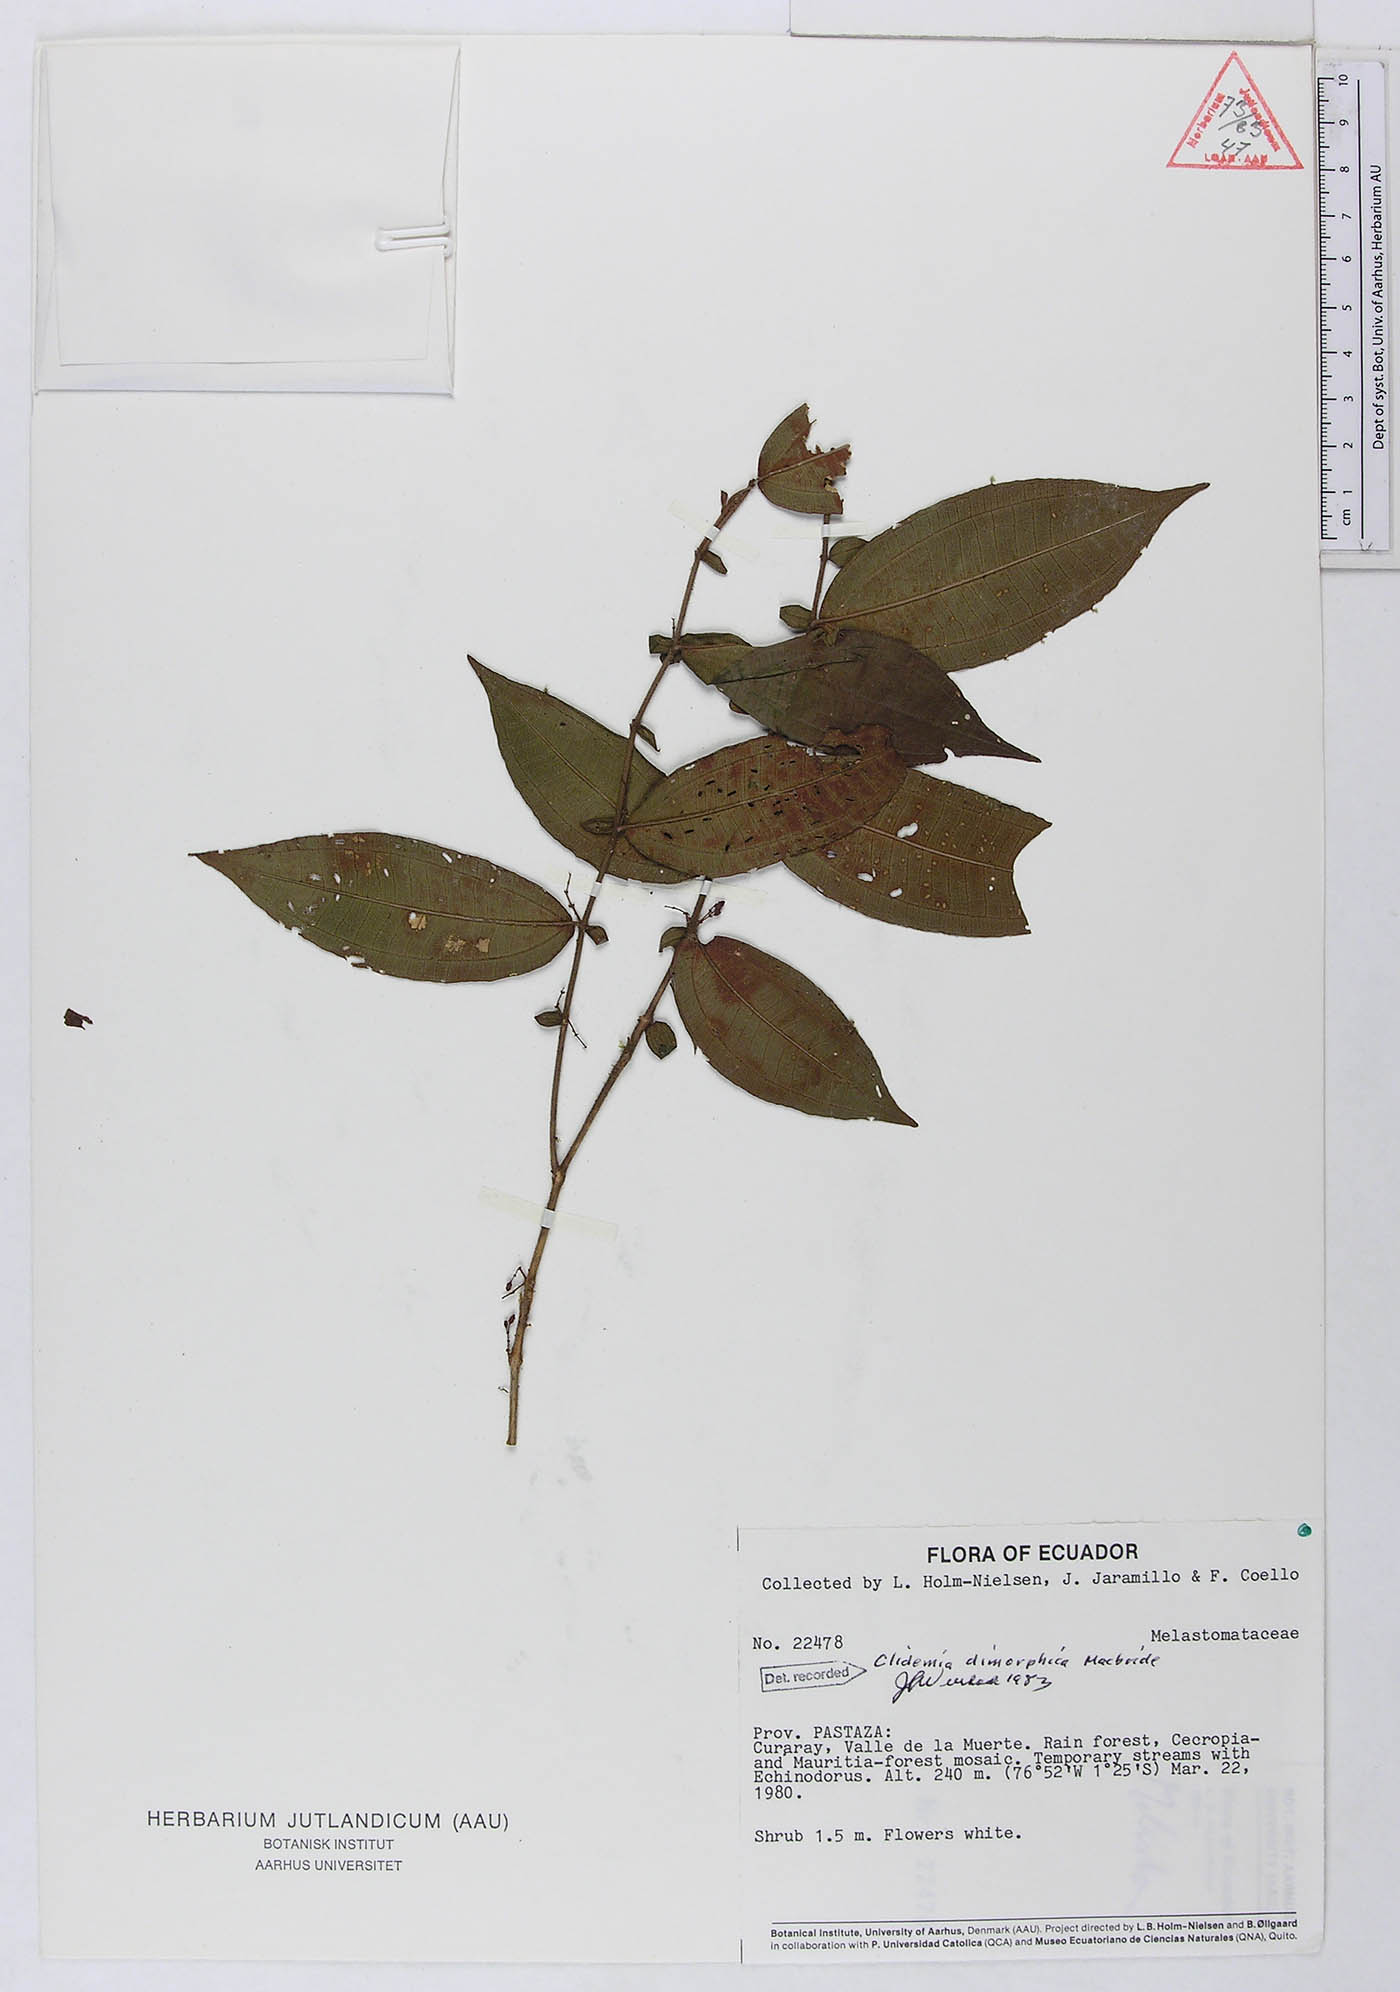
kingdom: Plantae
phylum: Tracheophyta
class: Magnoliopsida
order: Myrtales
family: Melastomataceae
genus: Miconia
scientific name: Miconia dimorphica
